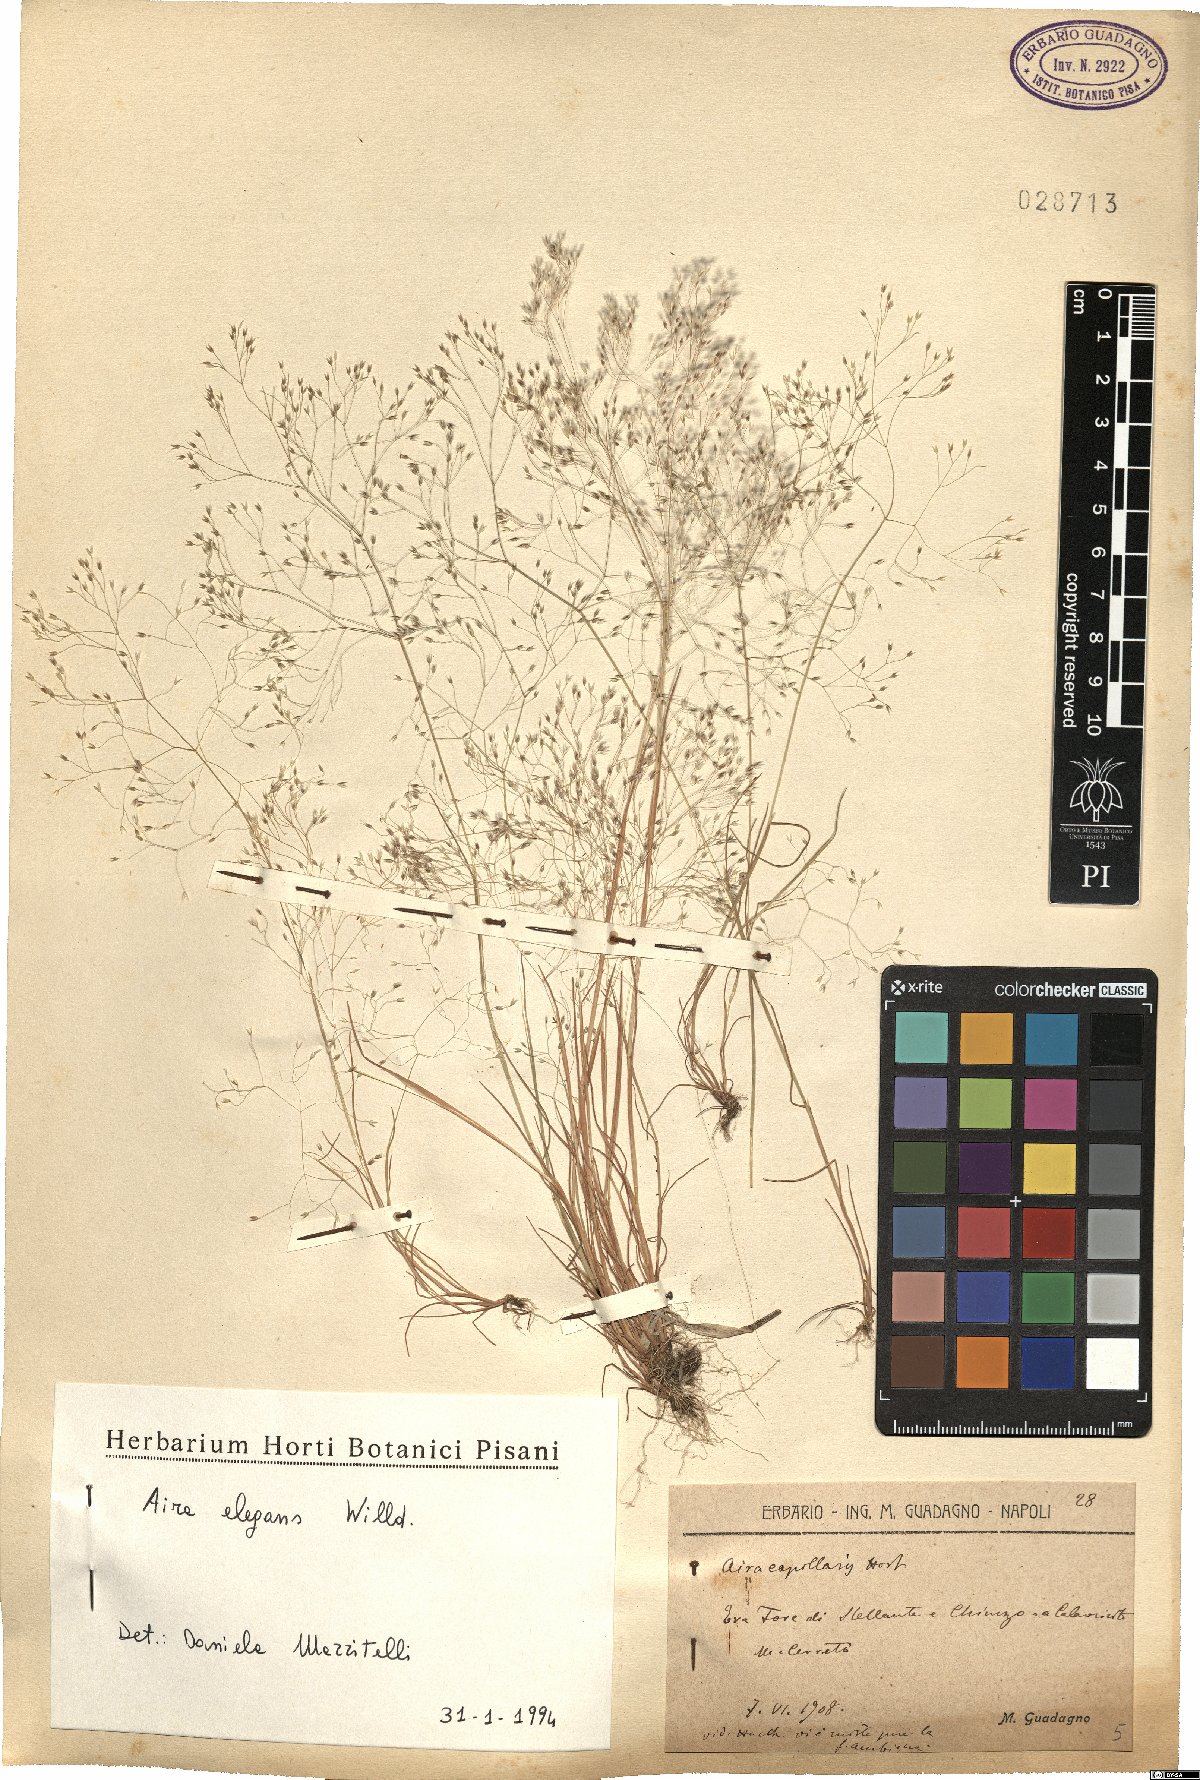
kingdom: Plantae
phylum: Tracheophyta
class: Liliopsida
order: Poales
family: Poaceae
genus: Aira
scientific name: Aira elegans
